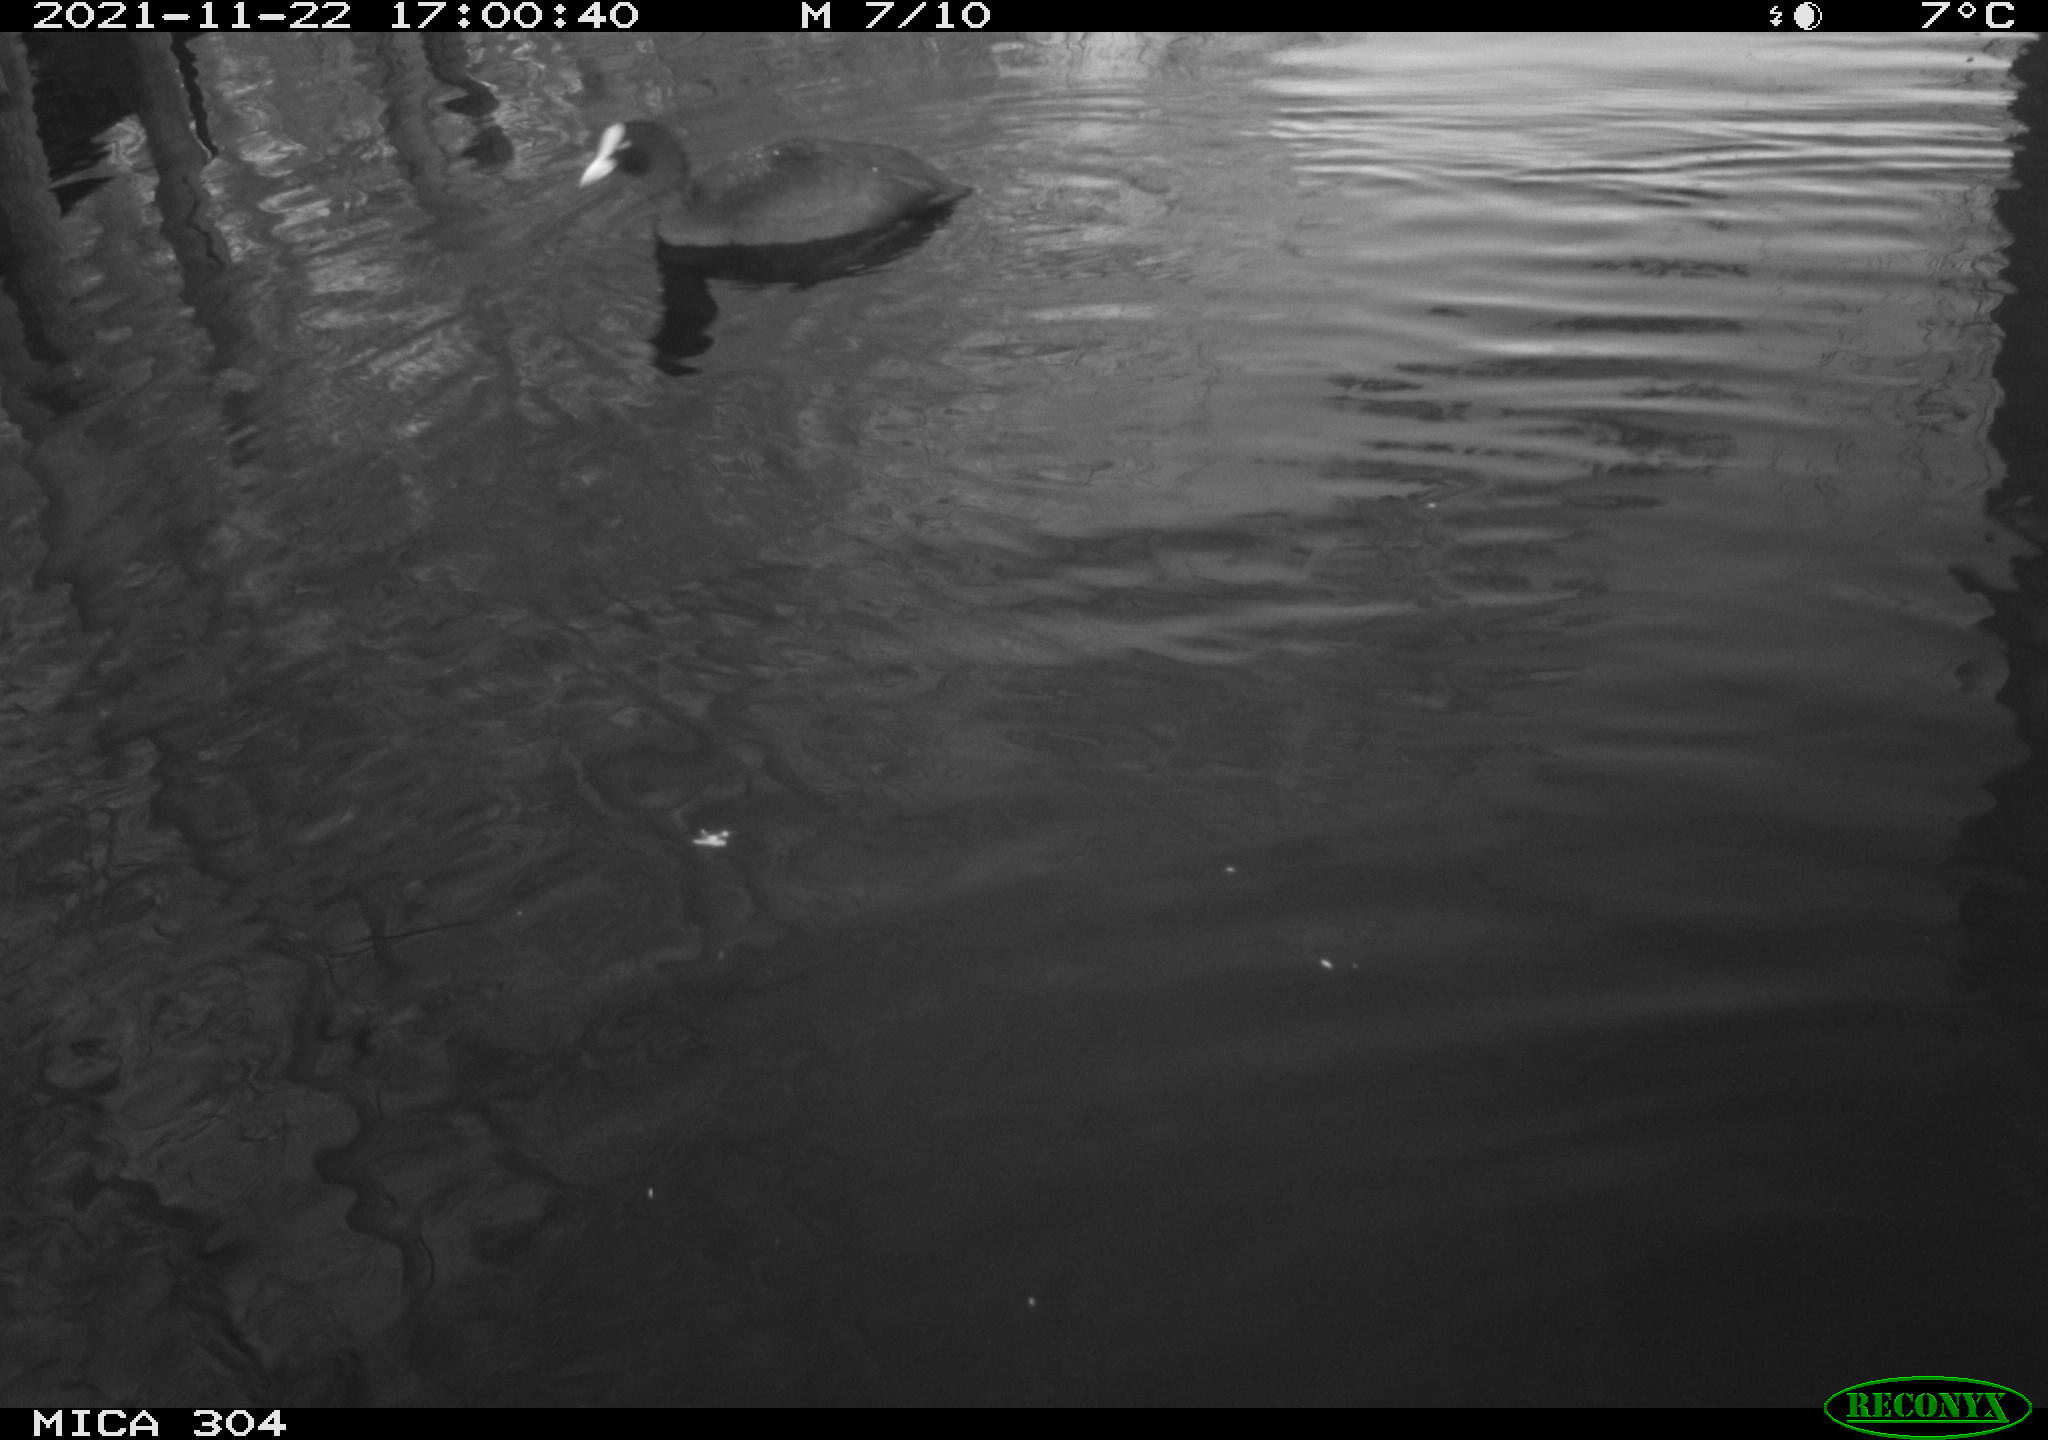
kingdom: Animalia
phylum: Chordata
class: Aves
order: Gruiformes
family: Rallidae
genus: Fulica
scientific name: Fulica atra
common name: Eurasian coot
